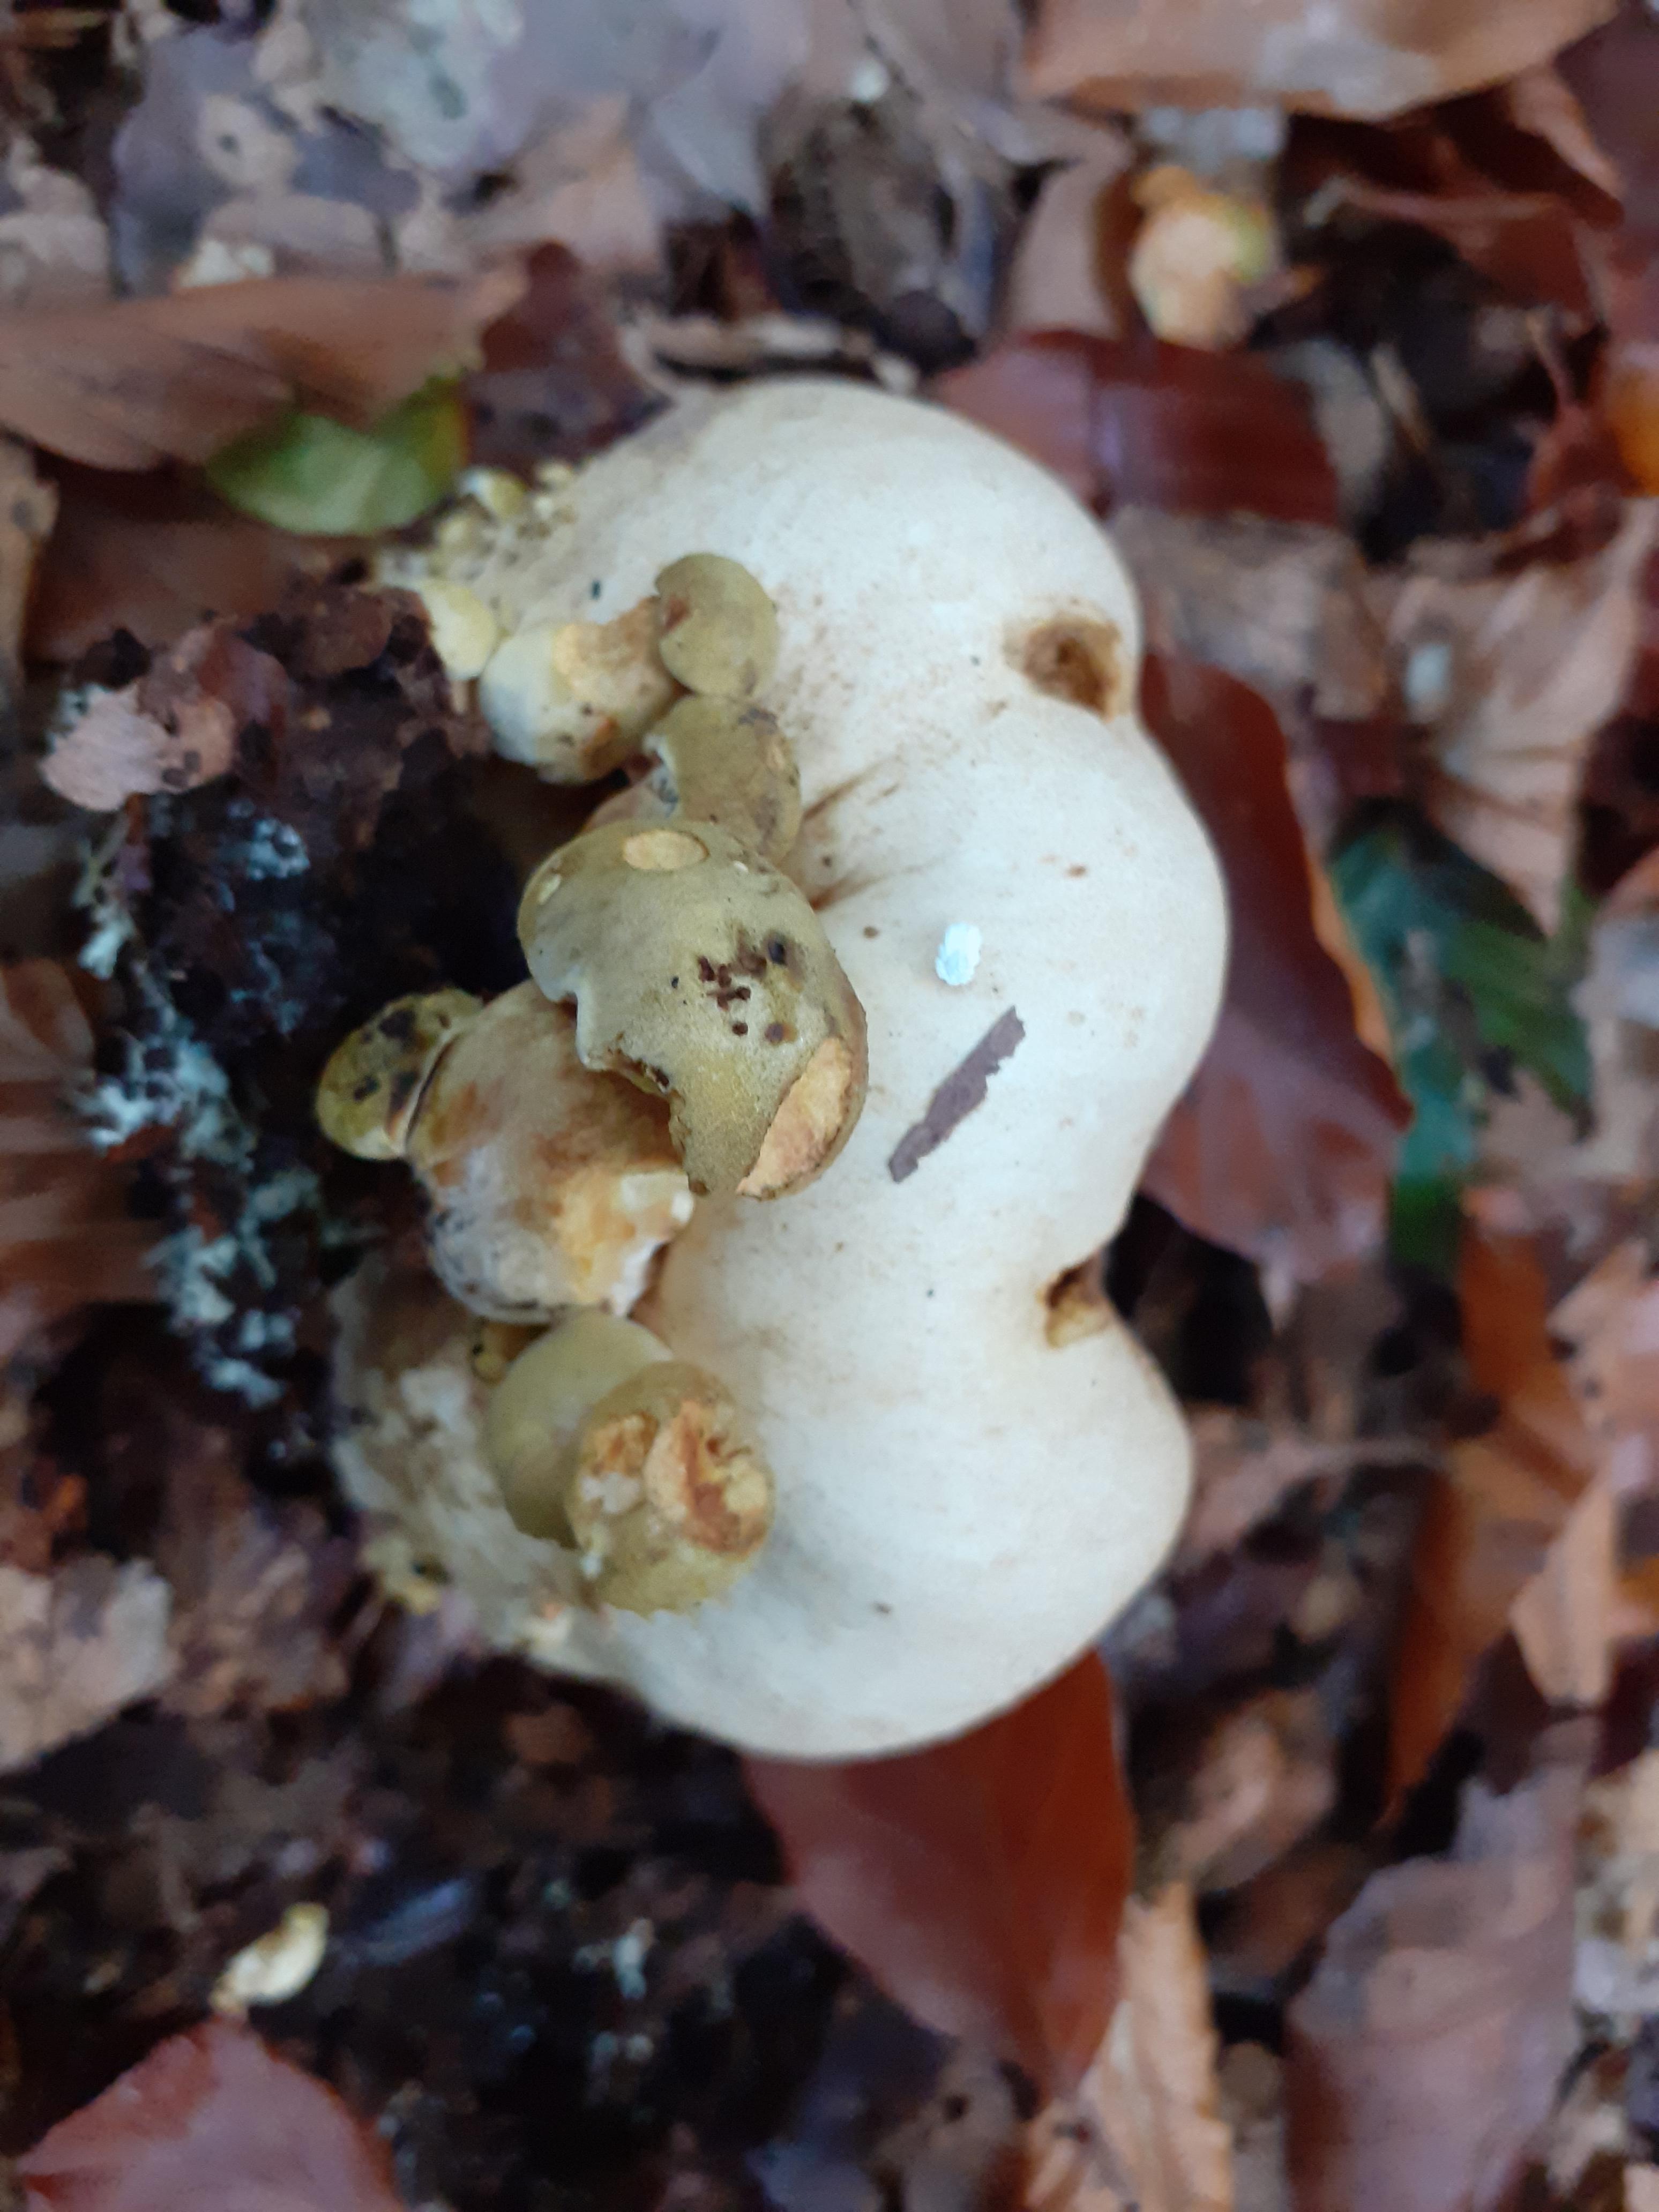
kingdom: Fungi
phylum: Basidiomycota
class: Agaricomycetes
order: Boletales
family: Boletaceae
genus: Pseudoboletus
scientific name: Pseudoboletus parasiticus
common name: snyltende rørhat
